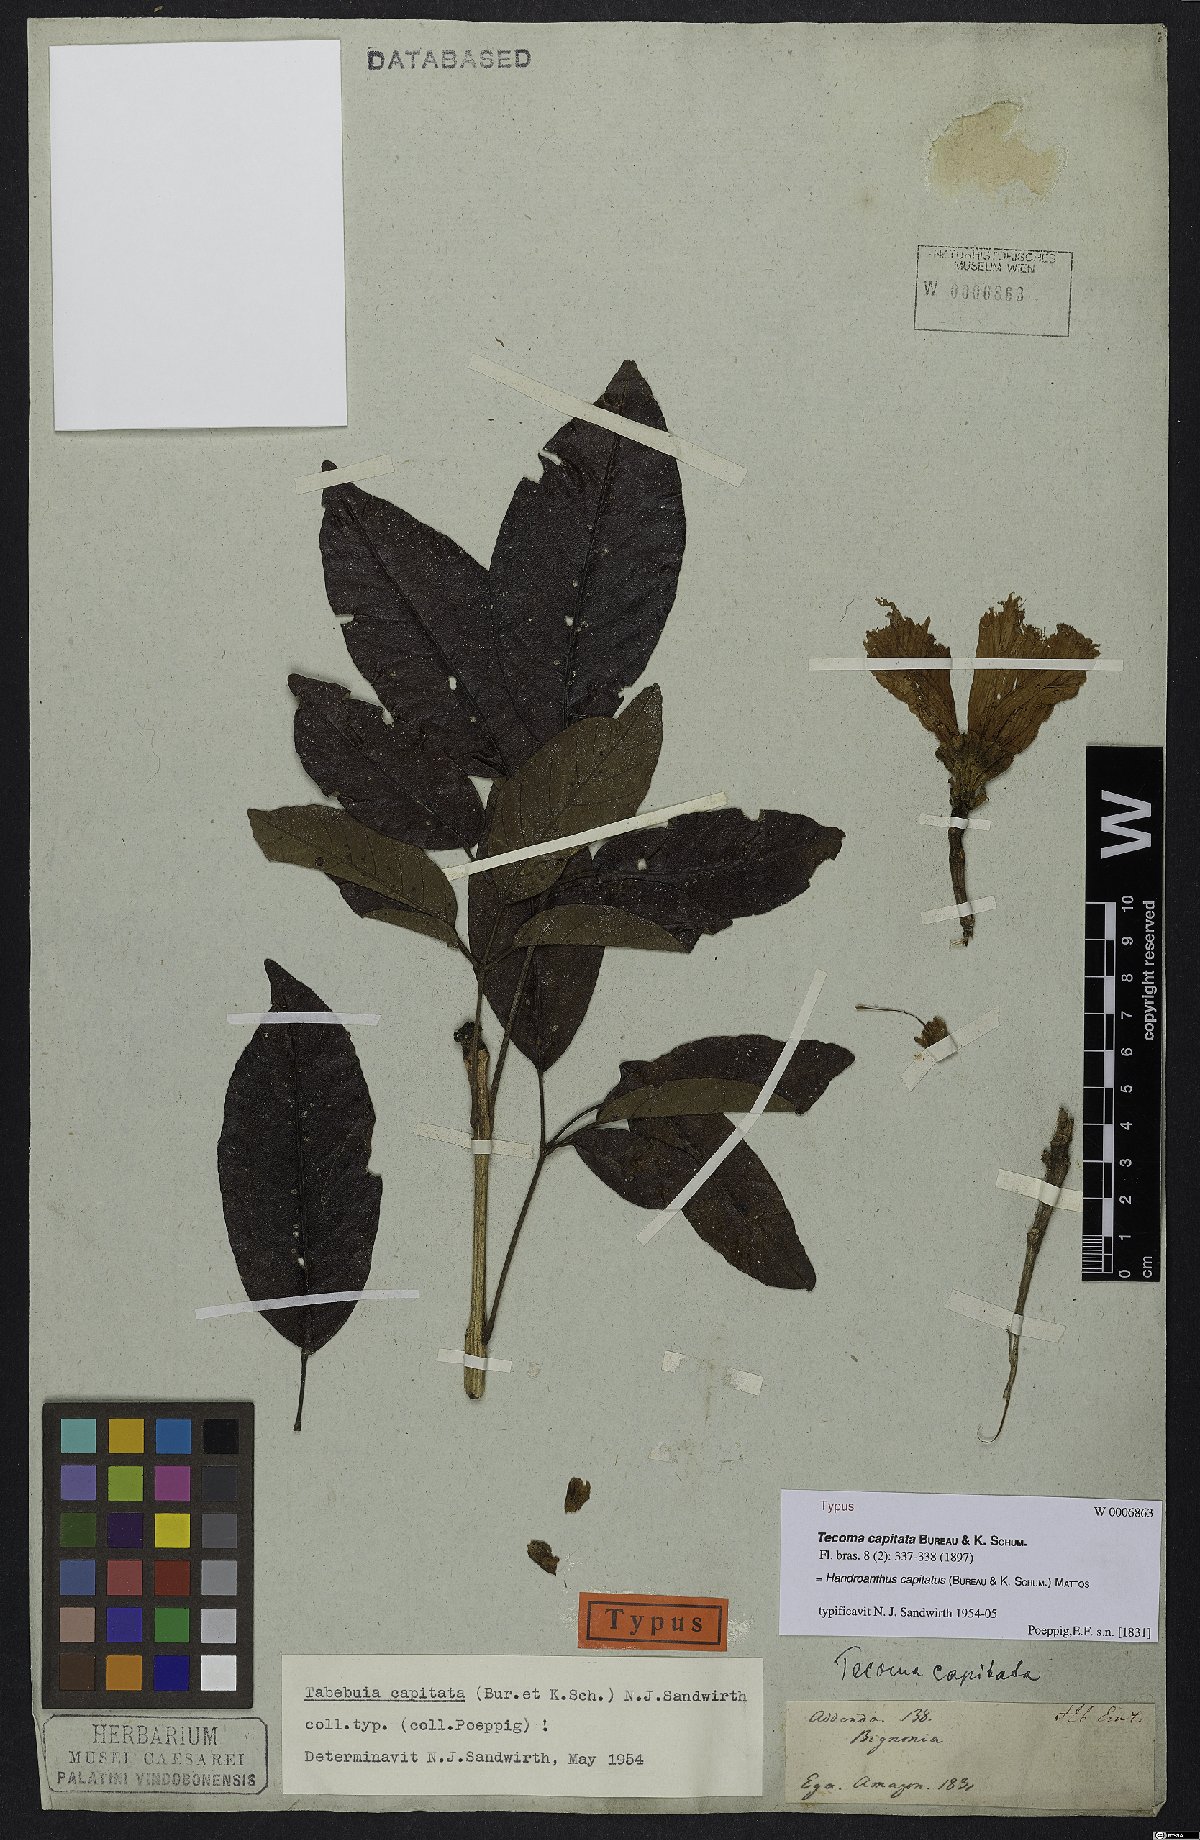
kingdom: Plantae
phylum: Tracheophyta
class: Magnoliopsida
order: Lamiales
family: Bignoniaceae
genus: Handroanthus
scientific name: Handroanthus capitatus
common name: Trumpet trees
